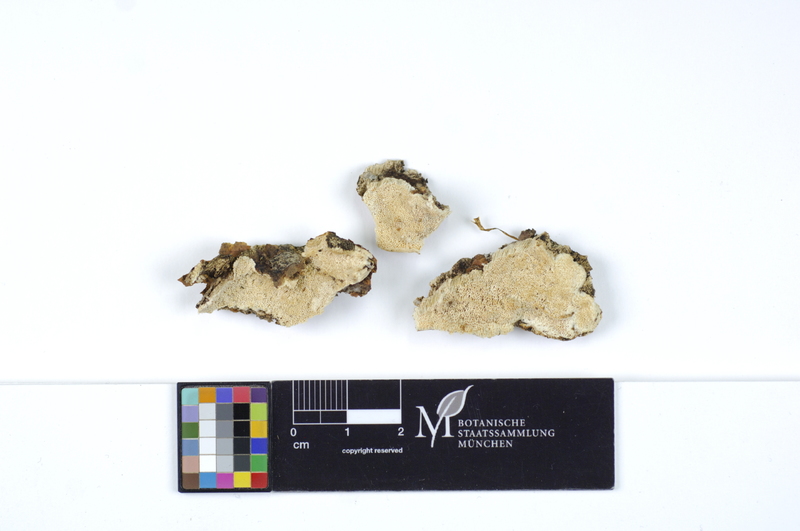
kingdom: Fungi
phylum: Basidiomycota
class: Agaricomycetes
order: Polyporales
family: Gelatoporiaceae
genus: Cinereomyces
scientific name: Cinereomyces lindbladii
